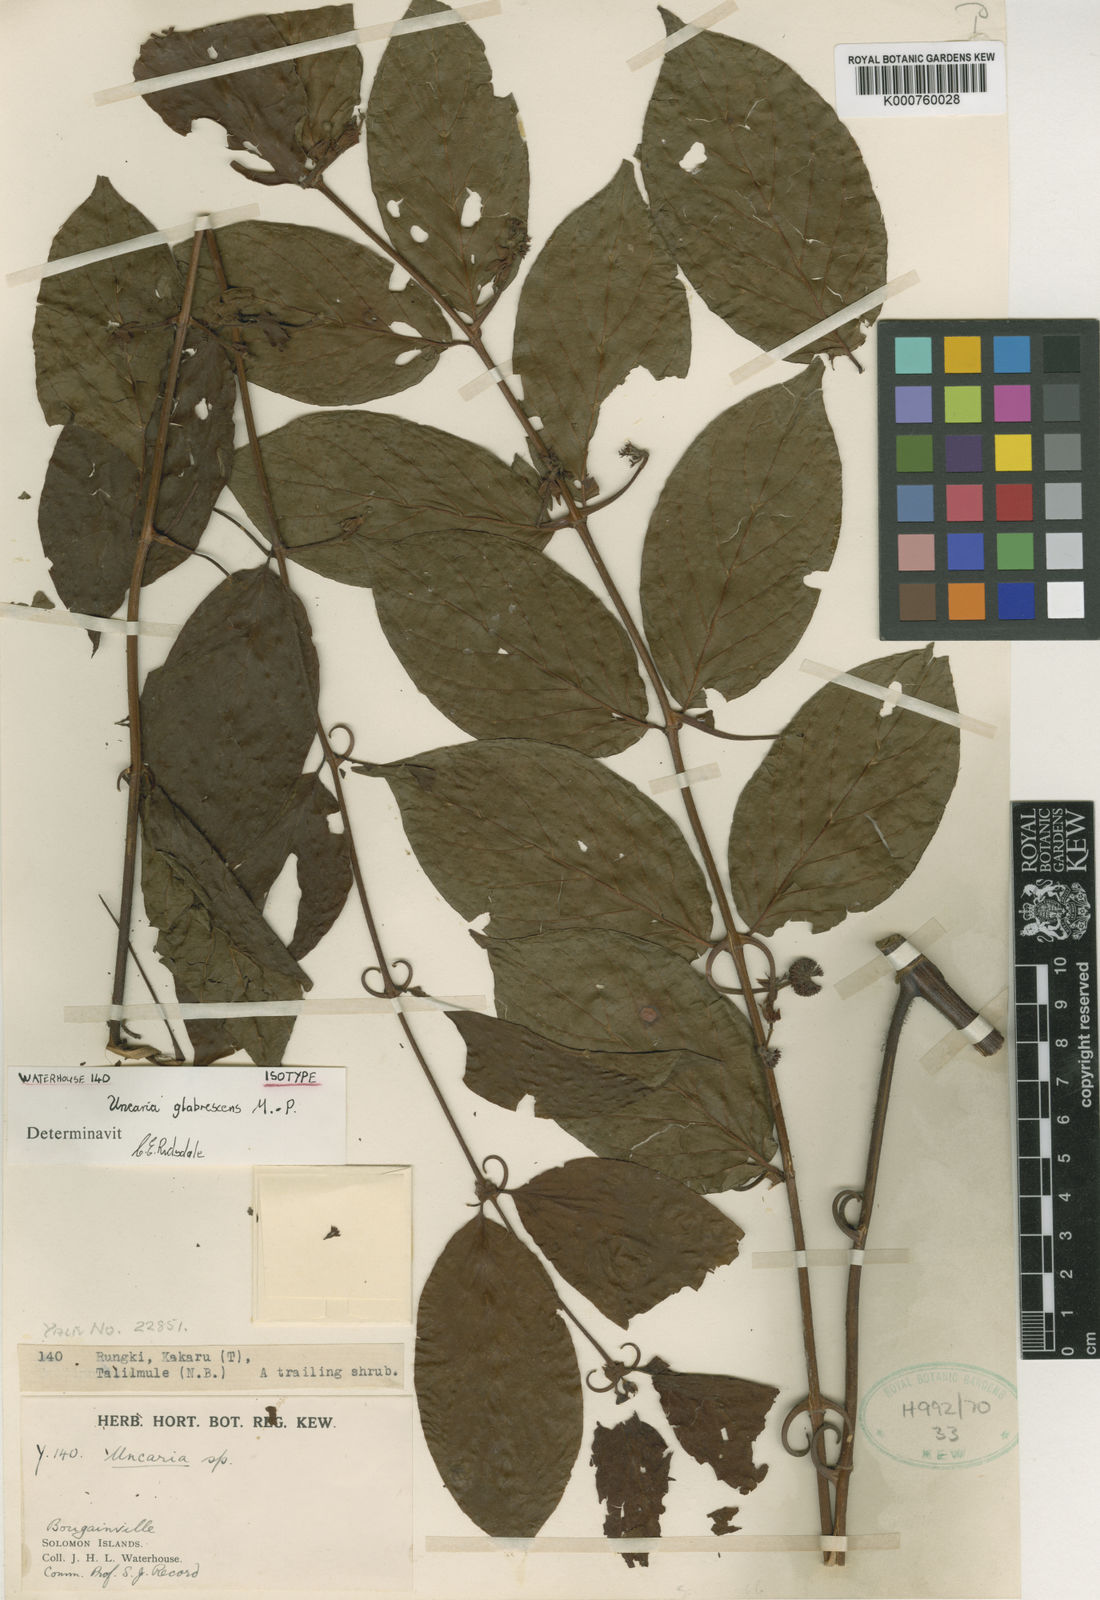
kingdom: Plantae
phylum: Tracheophyta
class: Magnoliopsida
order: Gentianales
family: Rubiaceae
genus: Uncaria
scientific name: Uncaria lanosa
